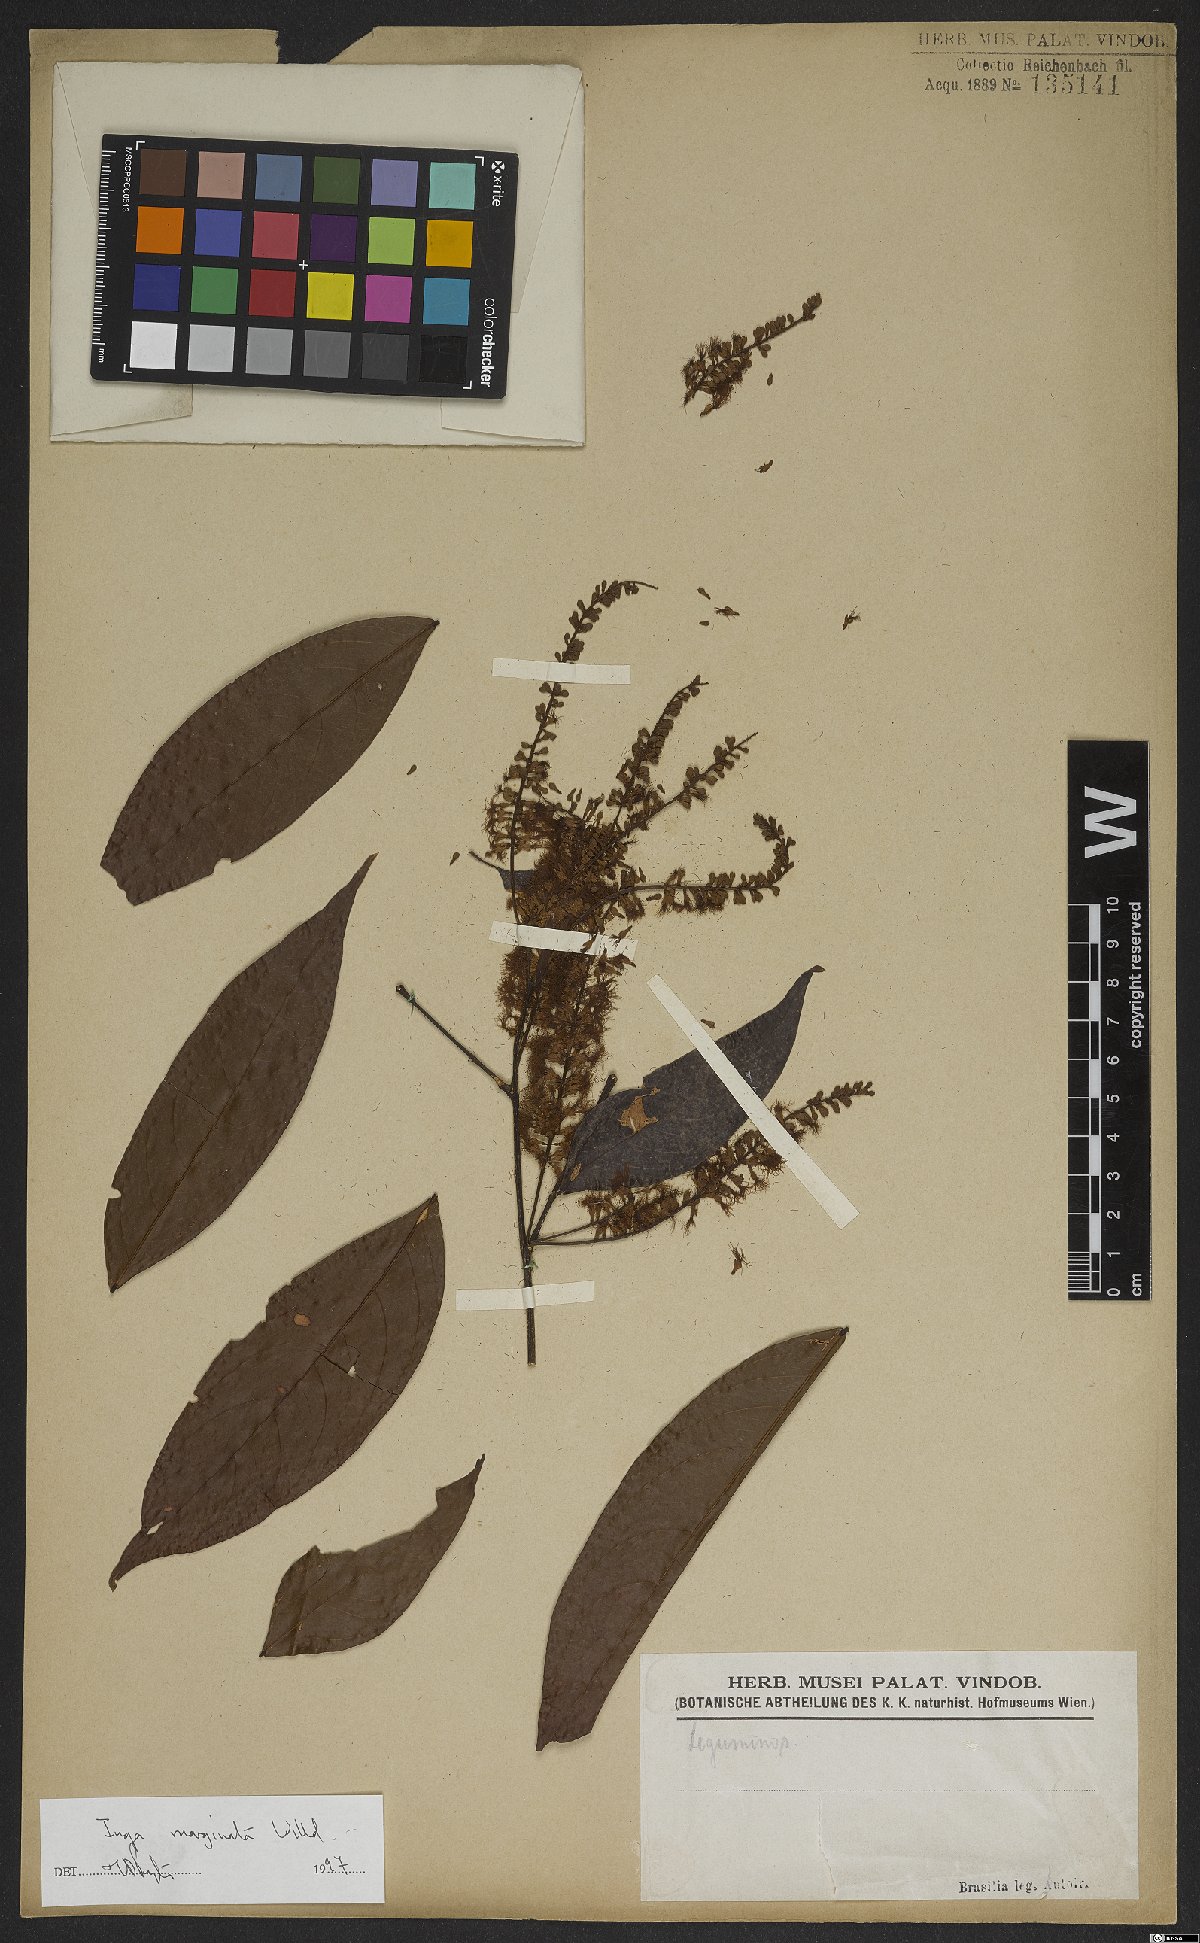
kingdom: Plantae
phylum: Tracheophyta
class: Magnoliopsida
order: Fabales
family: Fabaceae
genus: Inga
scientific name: Inga marginata
